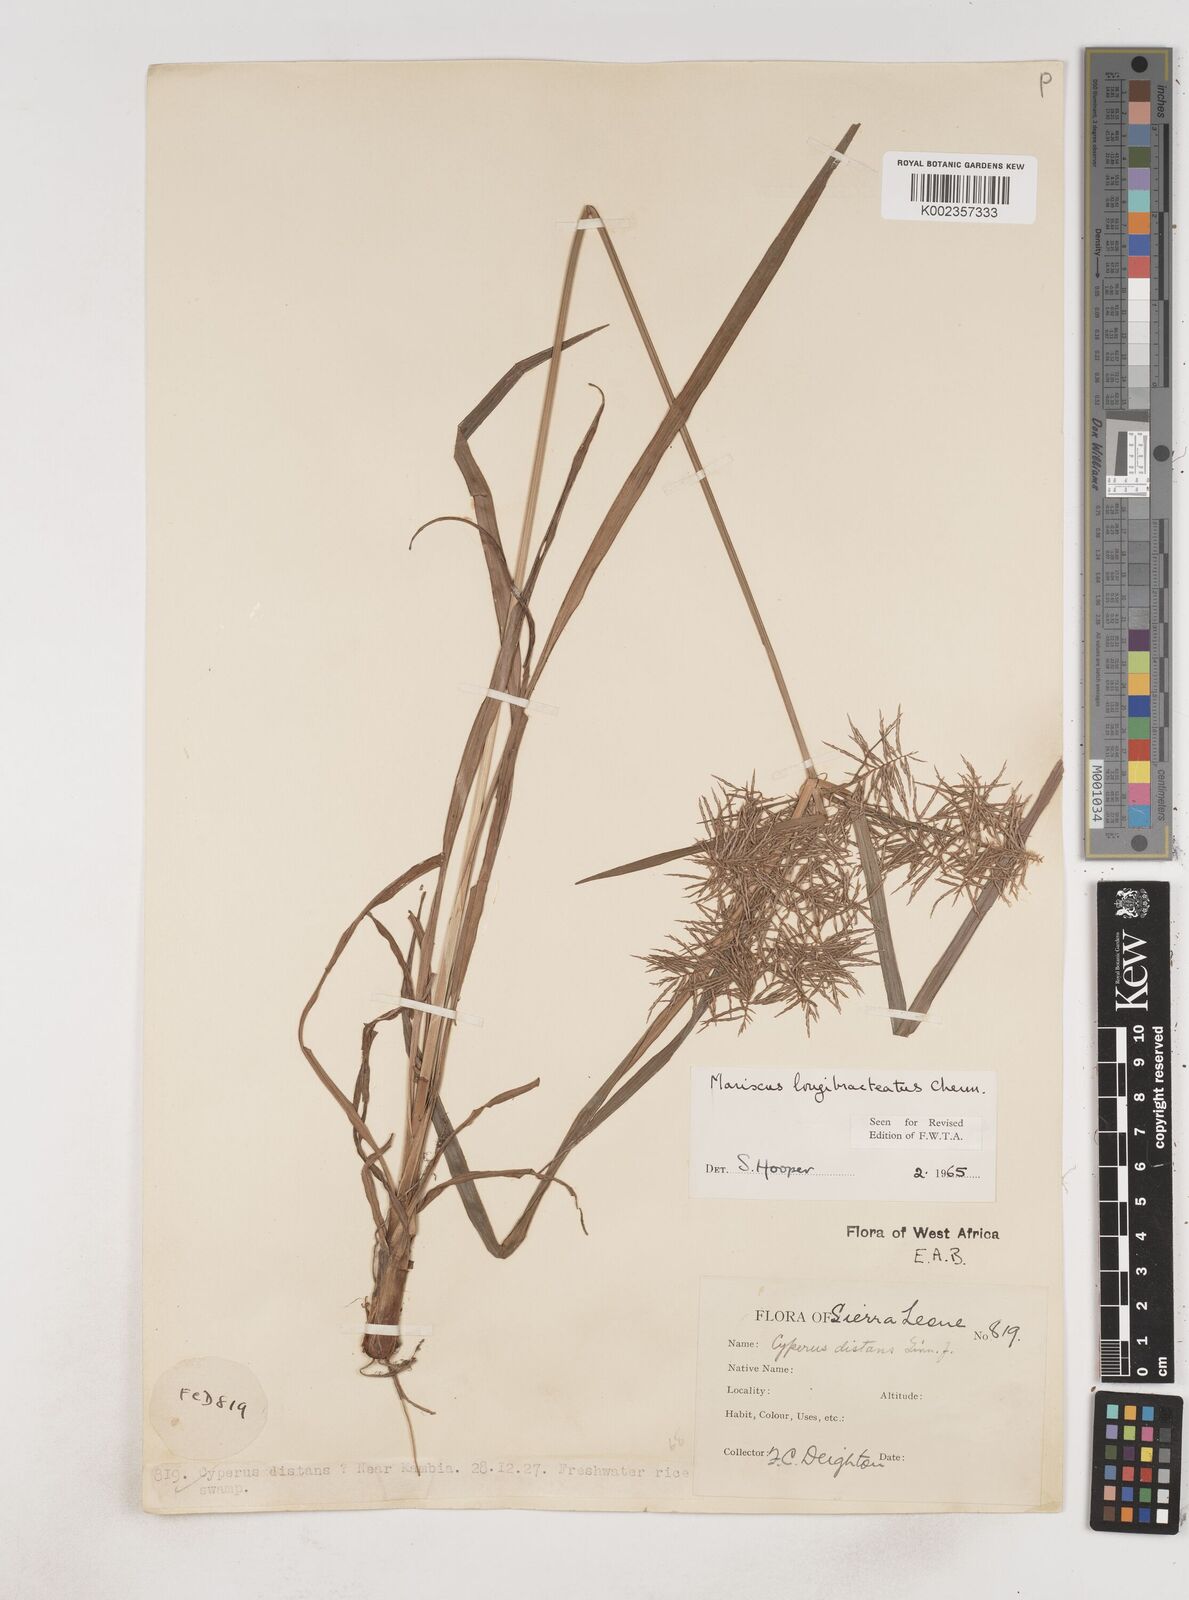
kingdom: Plantae
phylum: Tracheophyta
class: Liliopsida
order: Poales
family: Cyperaceae
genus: Cyperus
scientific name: Cyperus distans
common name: Slender cyperus
